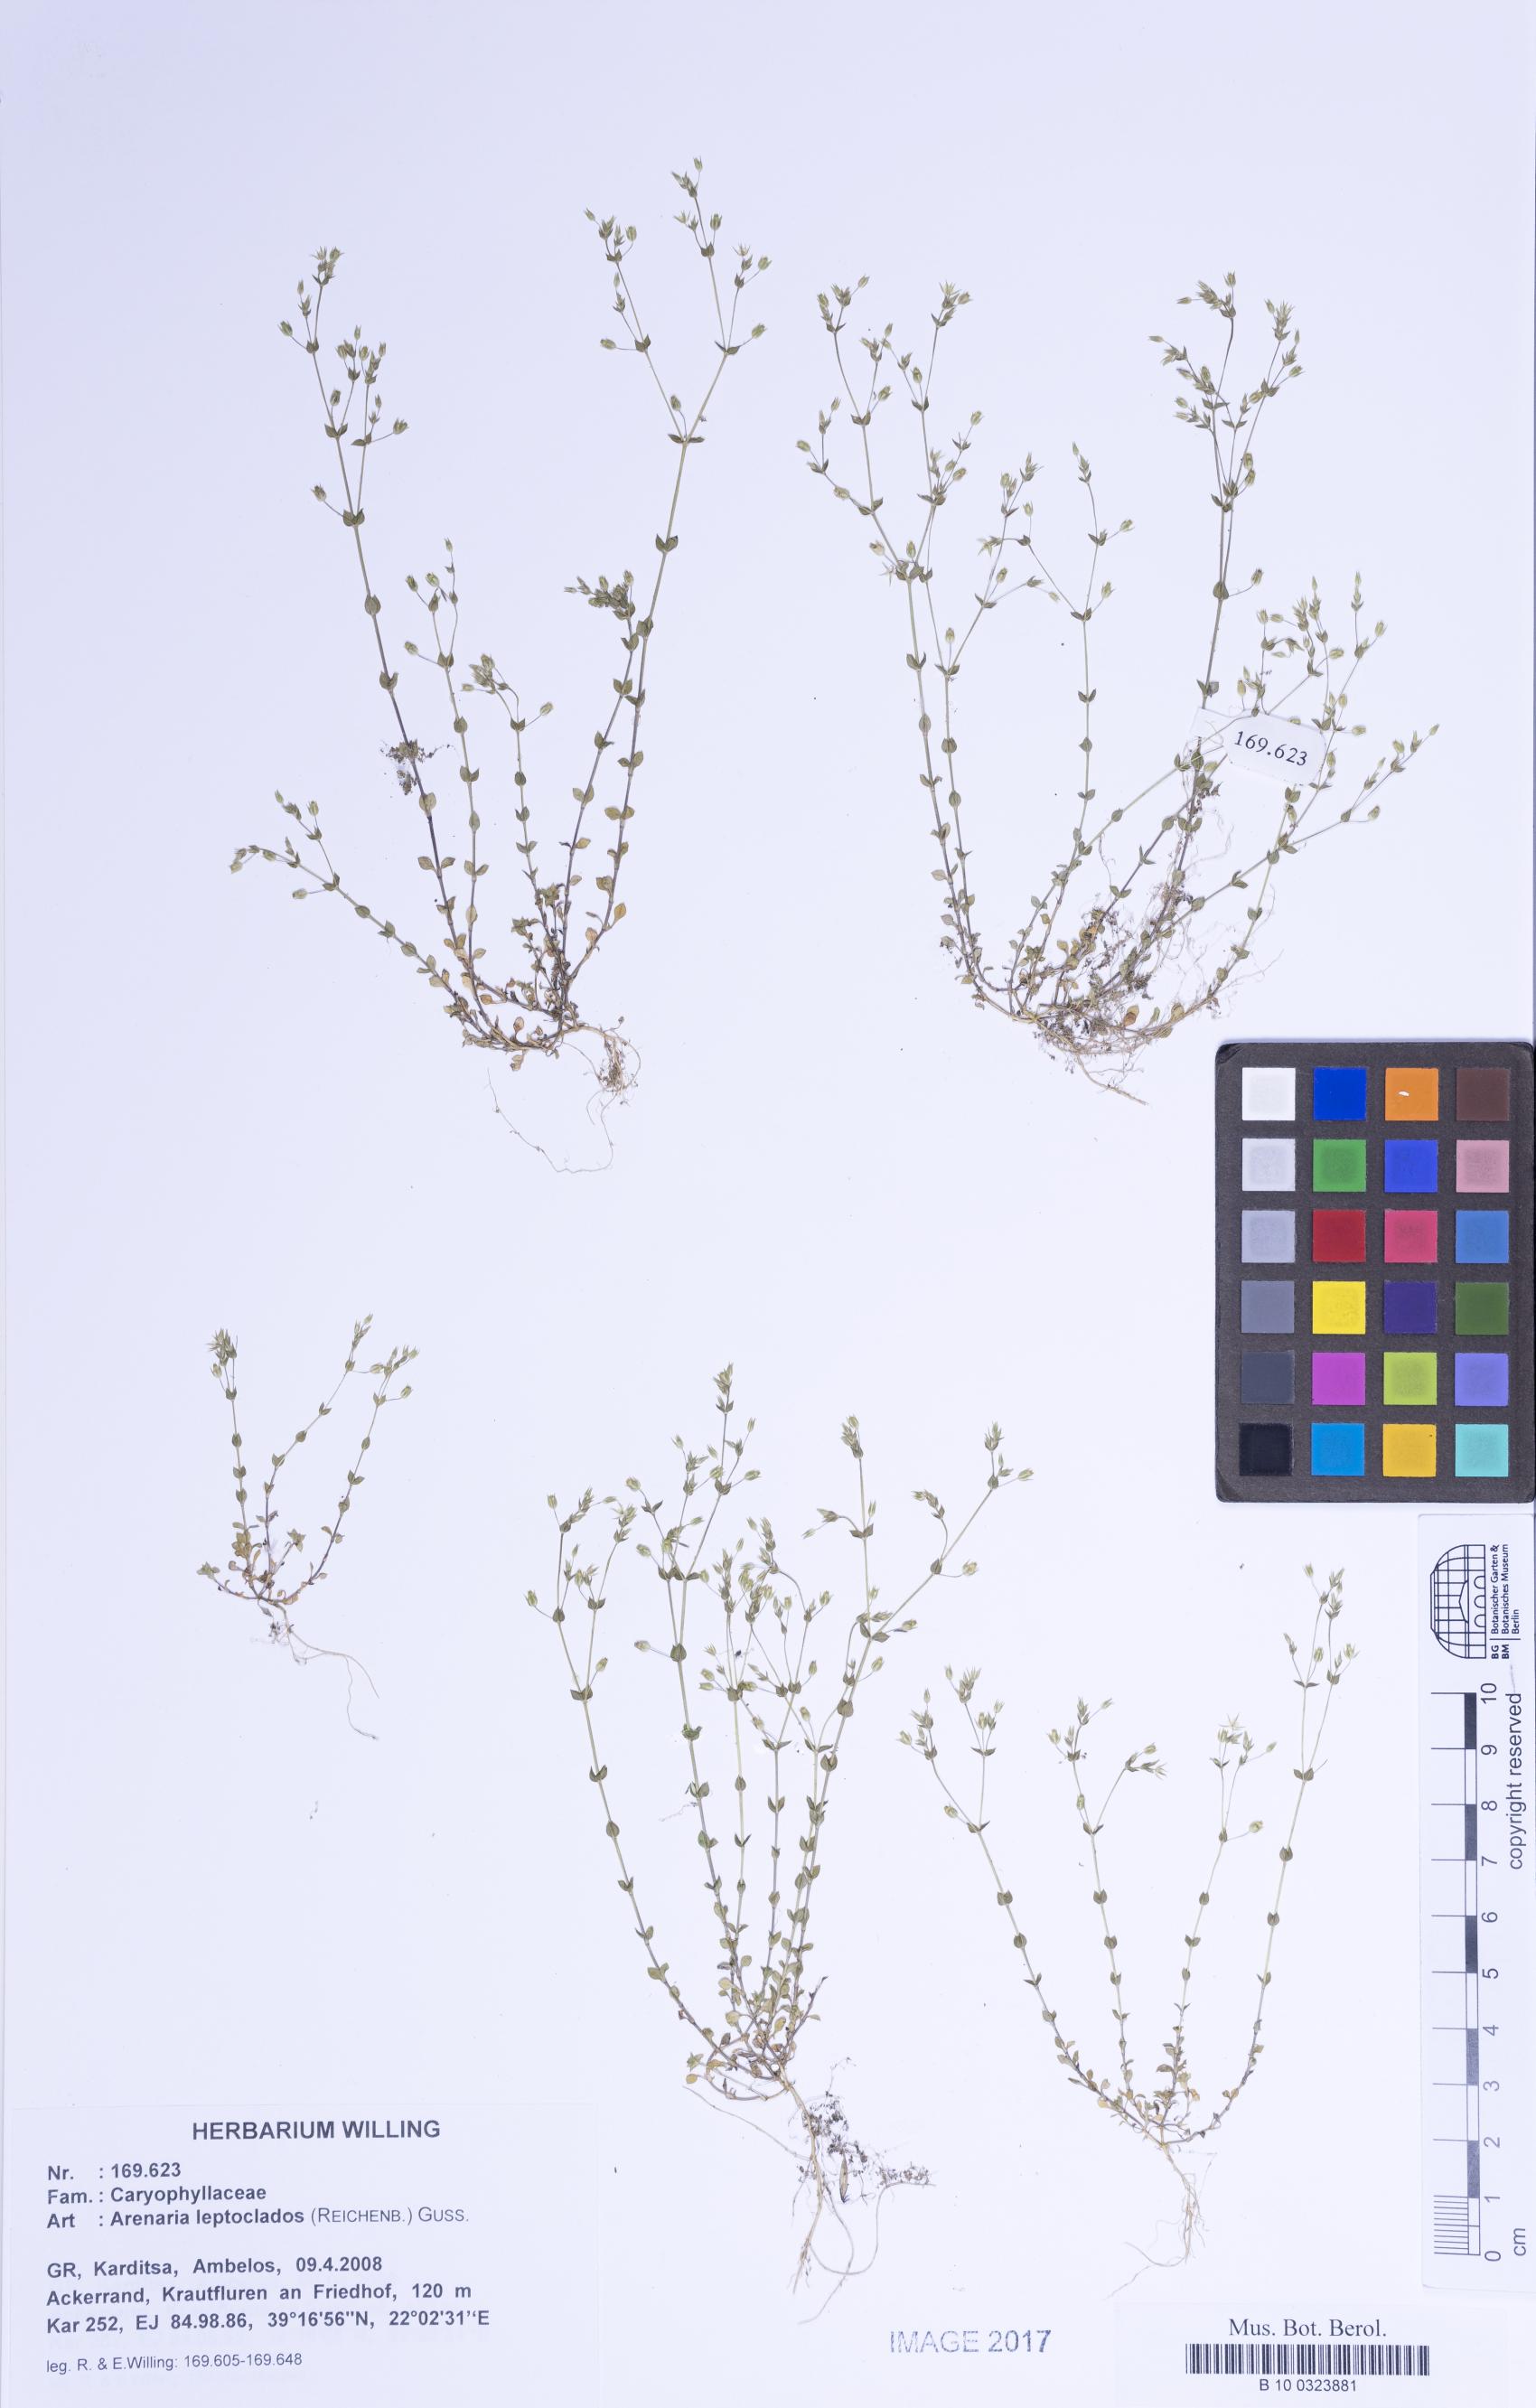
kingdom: Plantae
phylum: Tracheophyta
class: Magnoliopsida
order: Caryophyllales
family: Caryophyllaceae
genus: Arenaria
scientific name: Arenaria leptoclados
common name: Thyme-leaved sandwort
